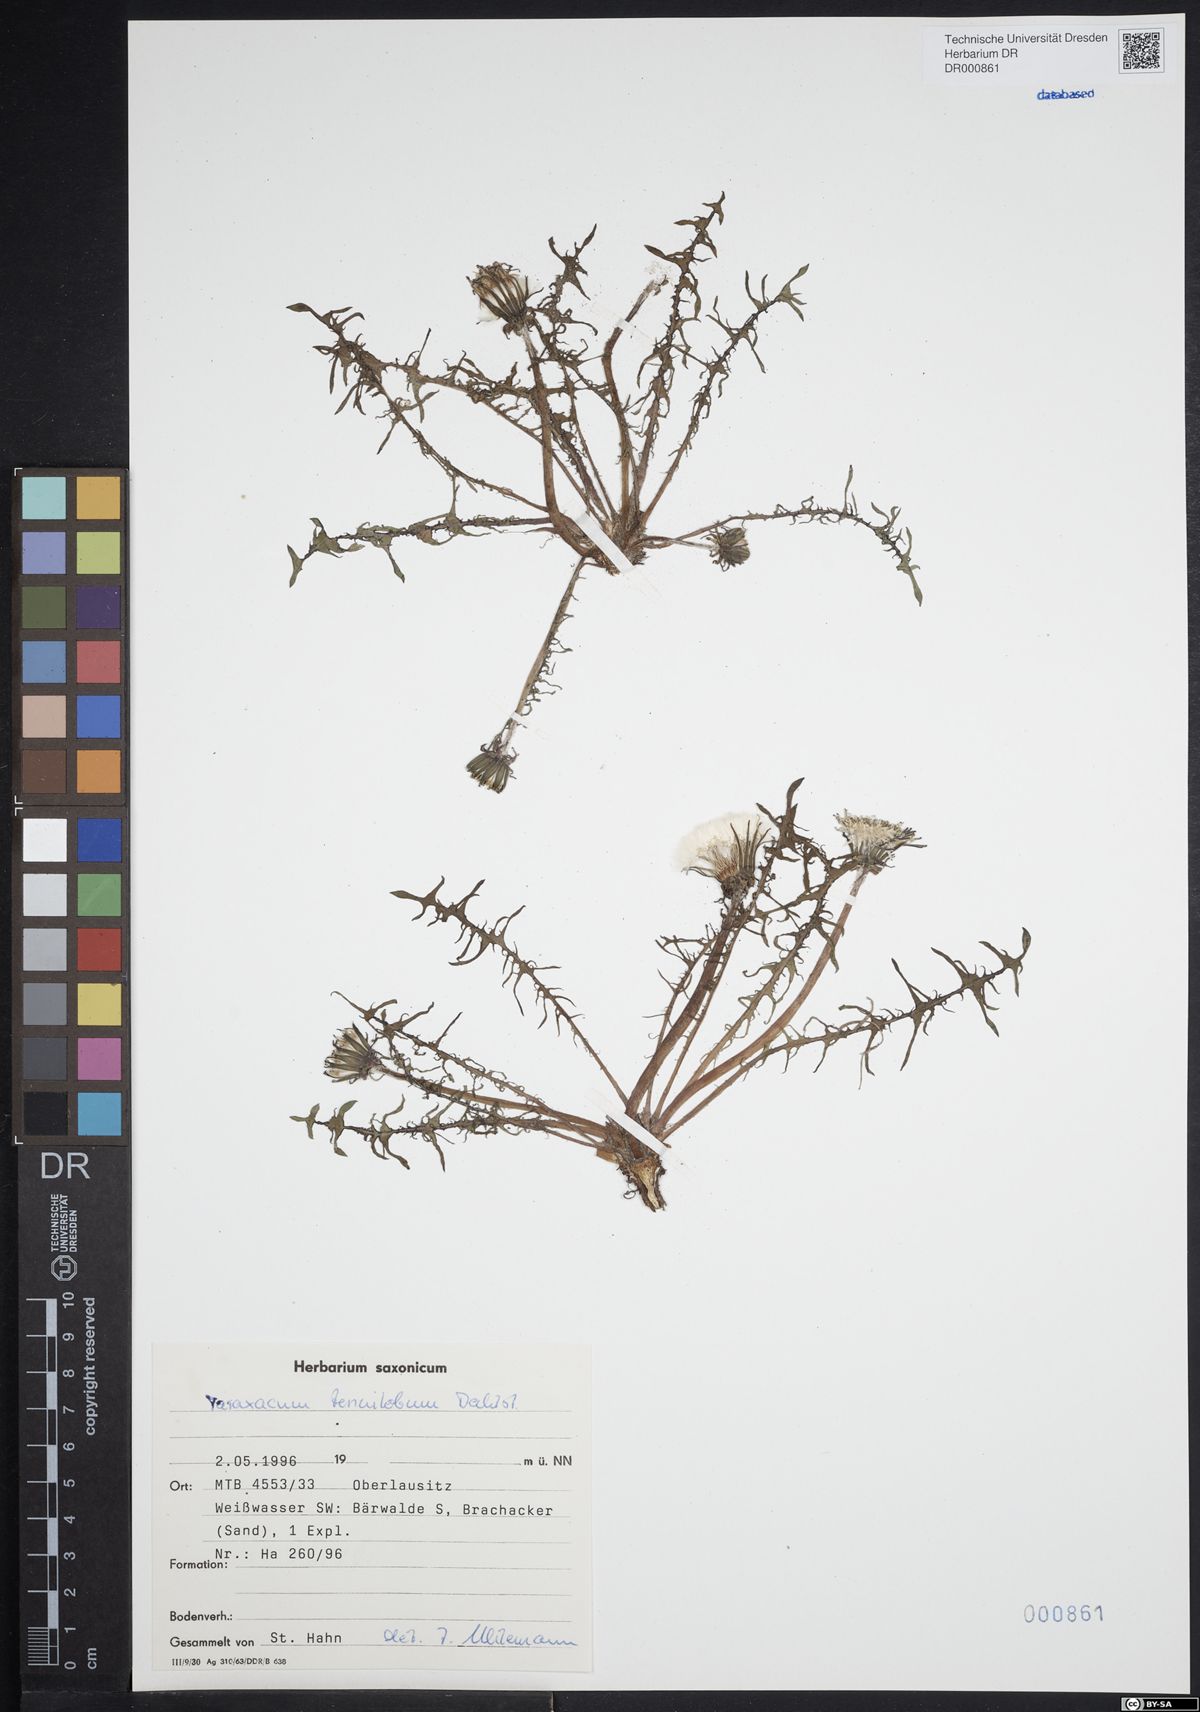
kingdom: Plantae
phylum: Tracheophyta
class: Magnoliopsida
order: Asterales
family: Asteraceae
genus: Taraxacum
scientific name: Taraxacum tenuilobum
